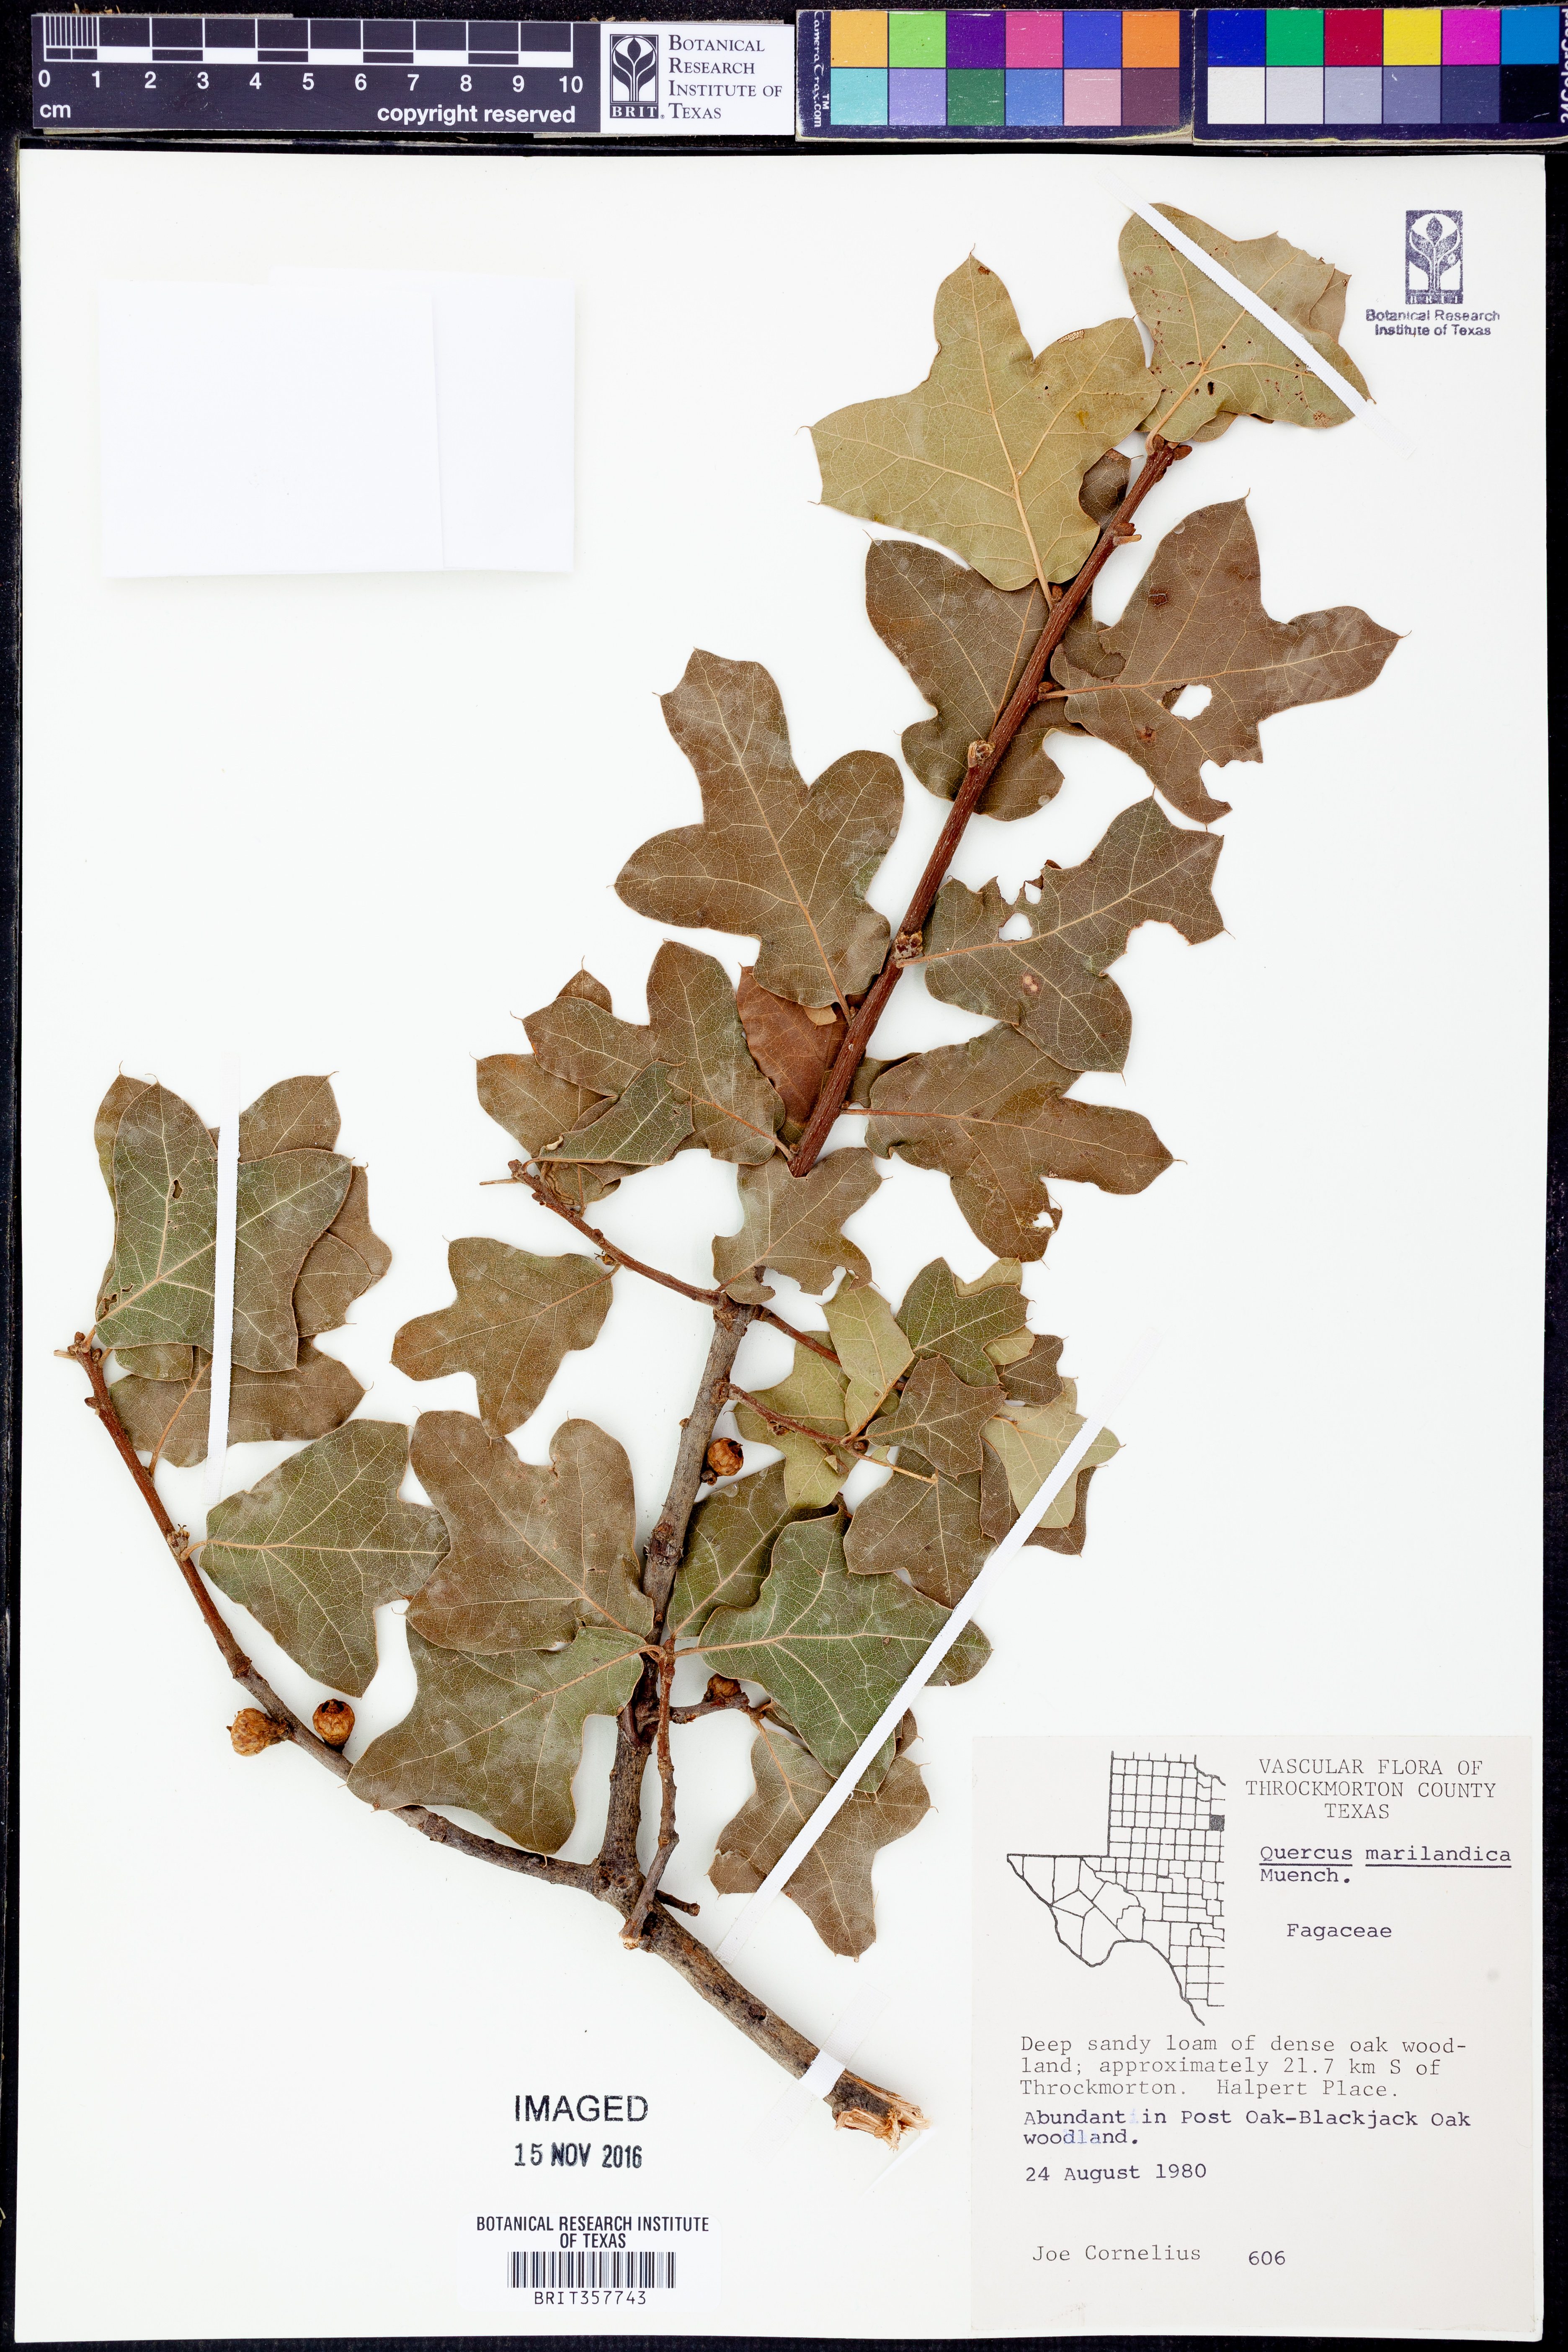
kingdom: Plantae
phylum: Tracheophyta
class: Magnoliopsida
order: Fagales
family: Fagaceae
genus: Quercus
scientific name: Quercus marilandica
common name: Blackjack oak
